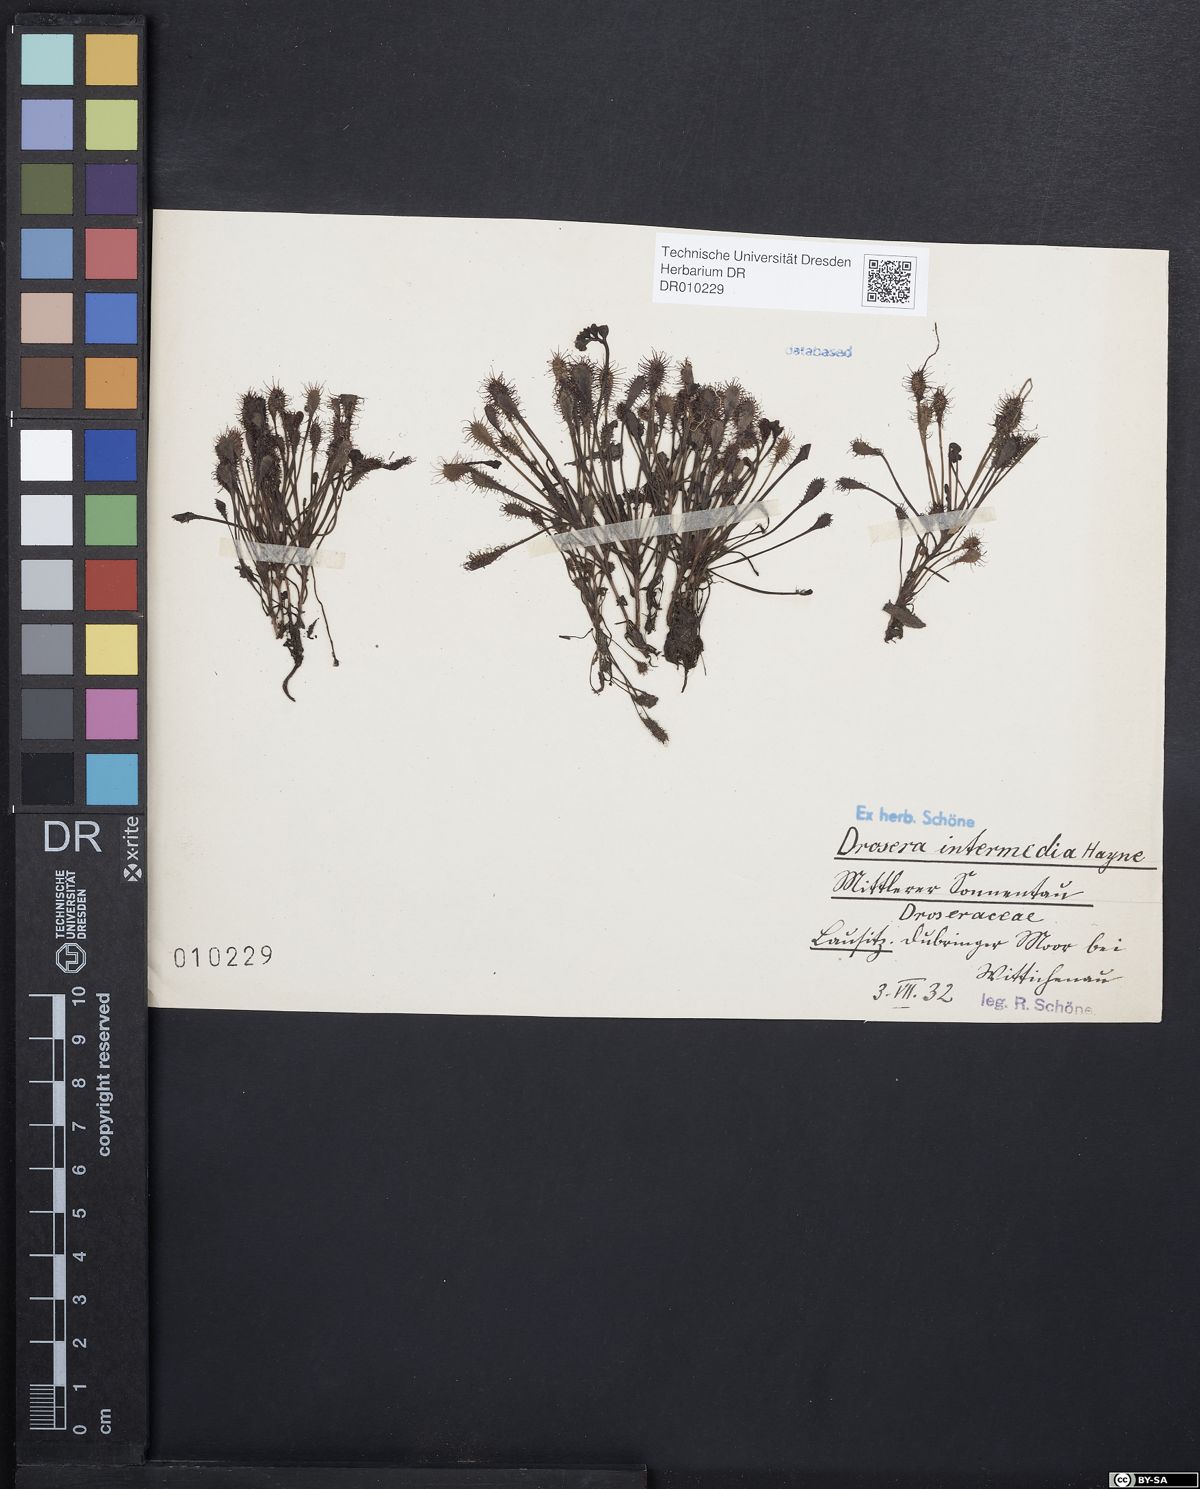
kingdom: Plantae
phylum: Tracheophyta
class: Magnoliopsida
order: Caryophyllales
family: Droseraceae
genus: Drosera
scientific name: Drosera intermedia
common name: Oblong-leaved sundew
